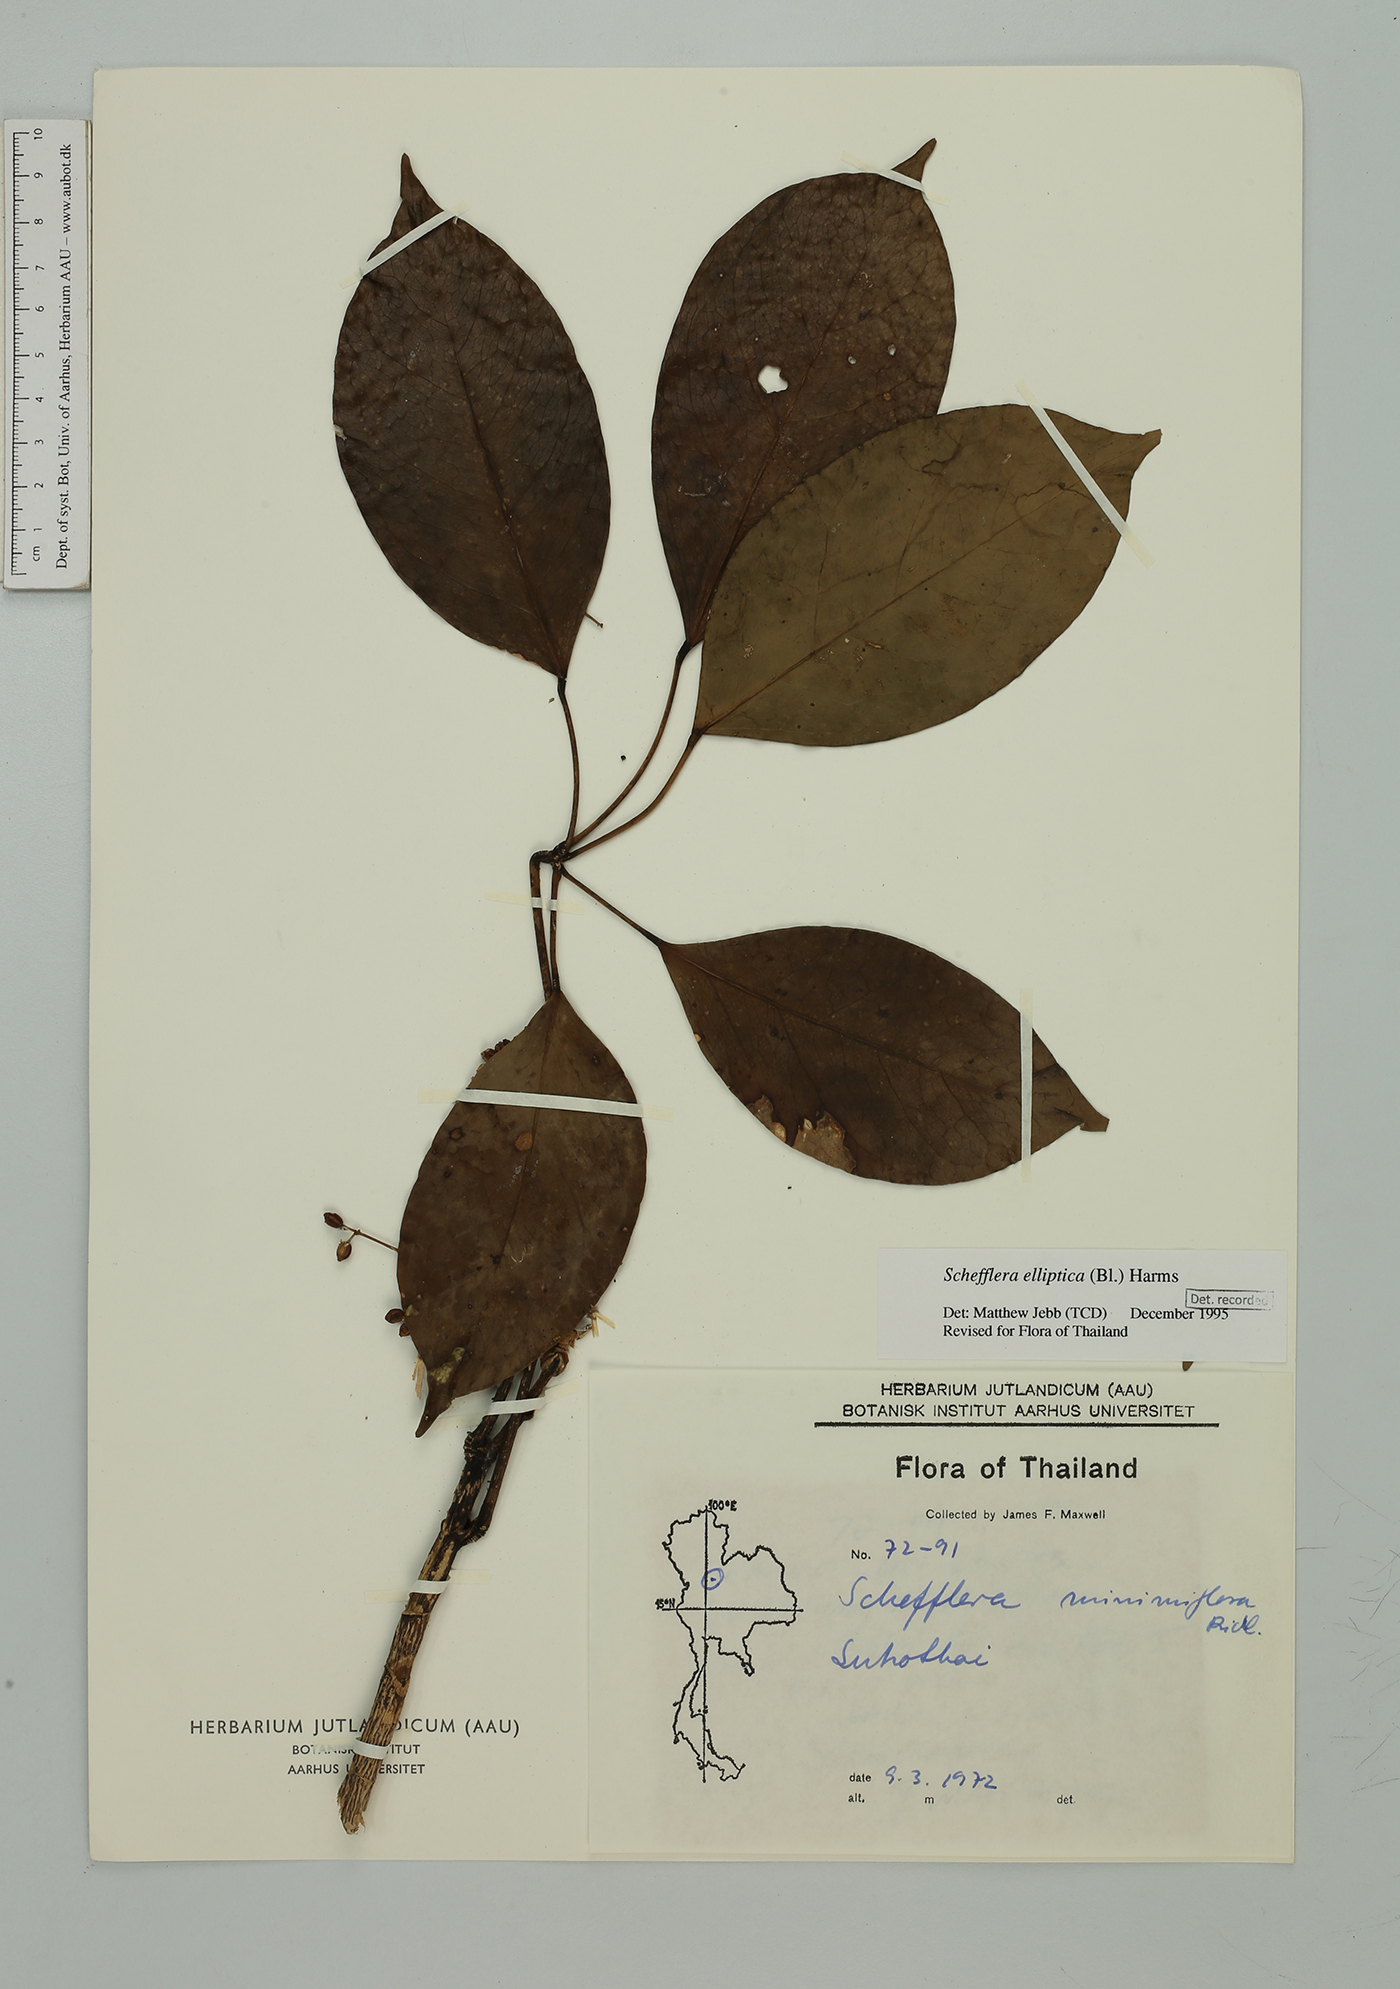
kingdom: Plantae
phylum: Tracheophyta
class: Magnoliopsida
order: Apiales
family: Araliaceae
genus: Heptapleurum
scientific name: Heptapleurum ellipticum
